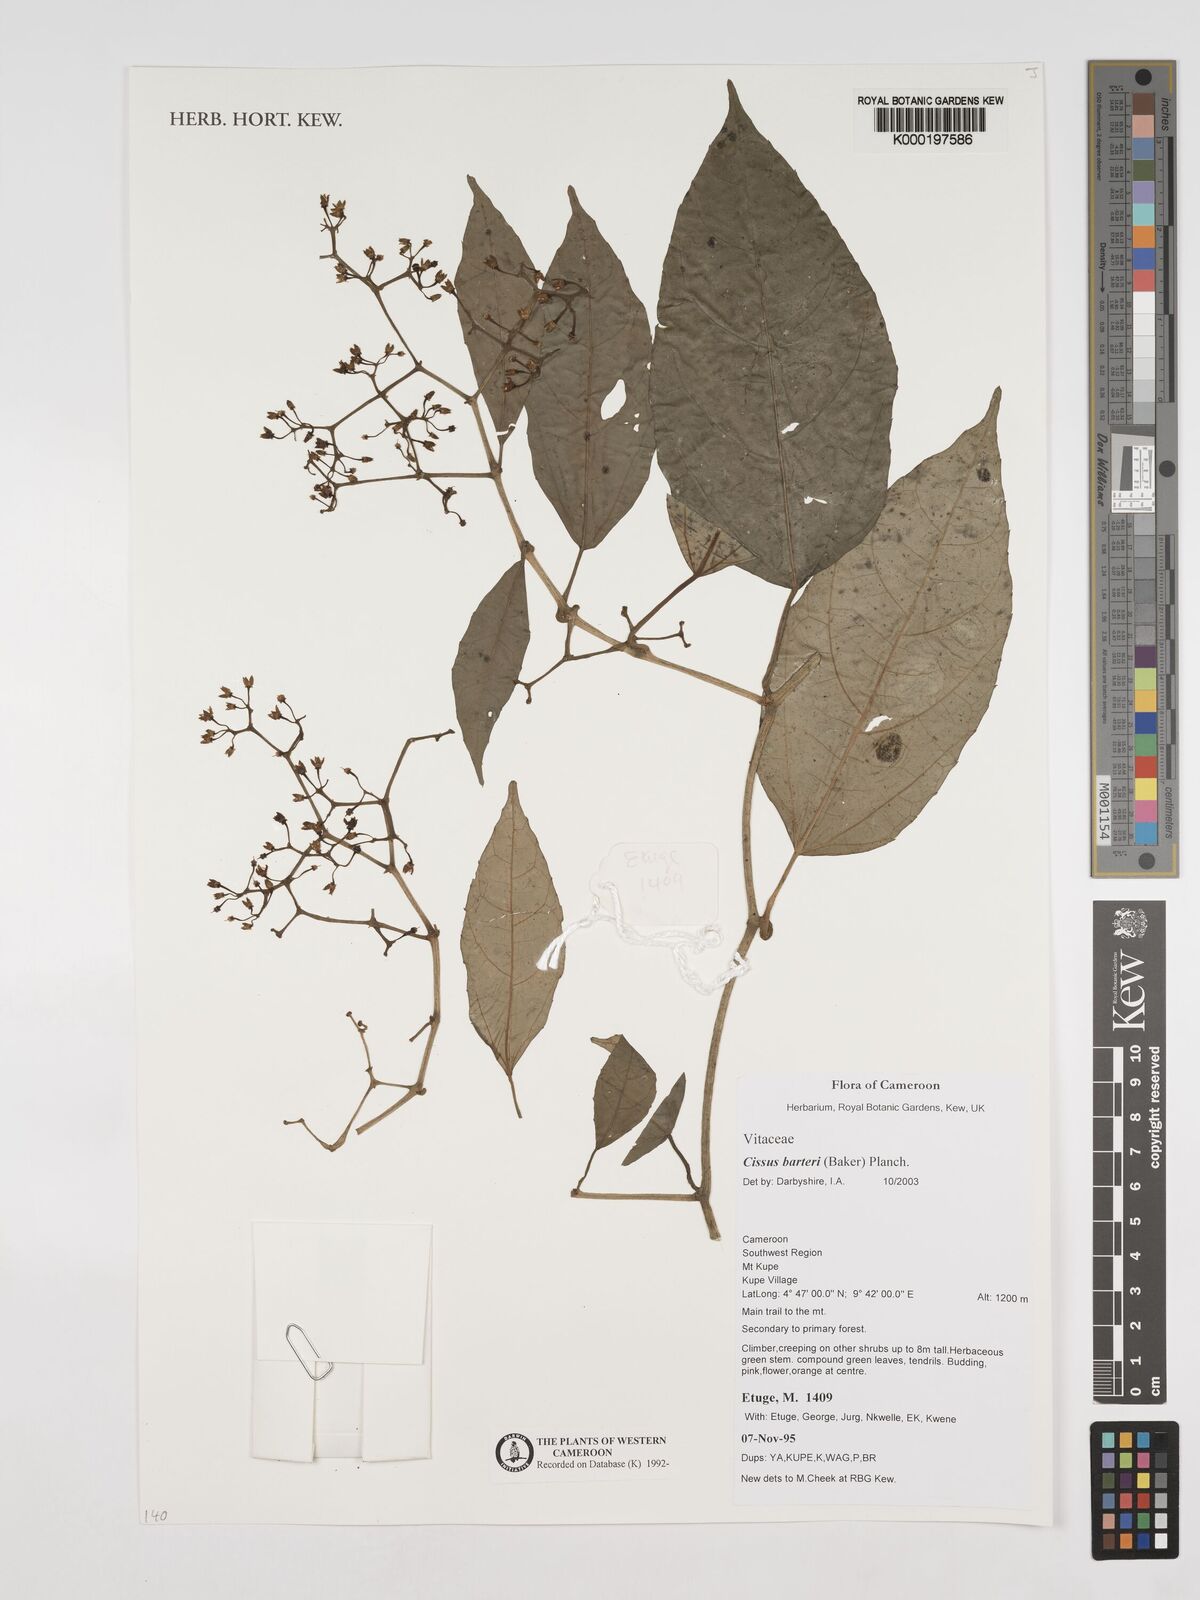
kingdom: Plantae
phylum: Tracheophyta
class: Magnoliopsida
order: Vitales
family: Vitaceae
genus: Cissus
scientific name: Cissus barteri
